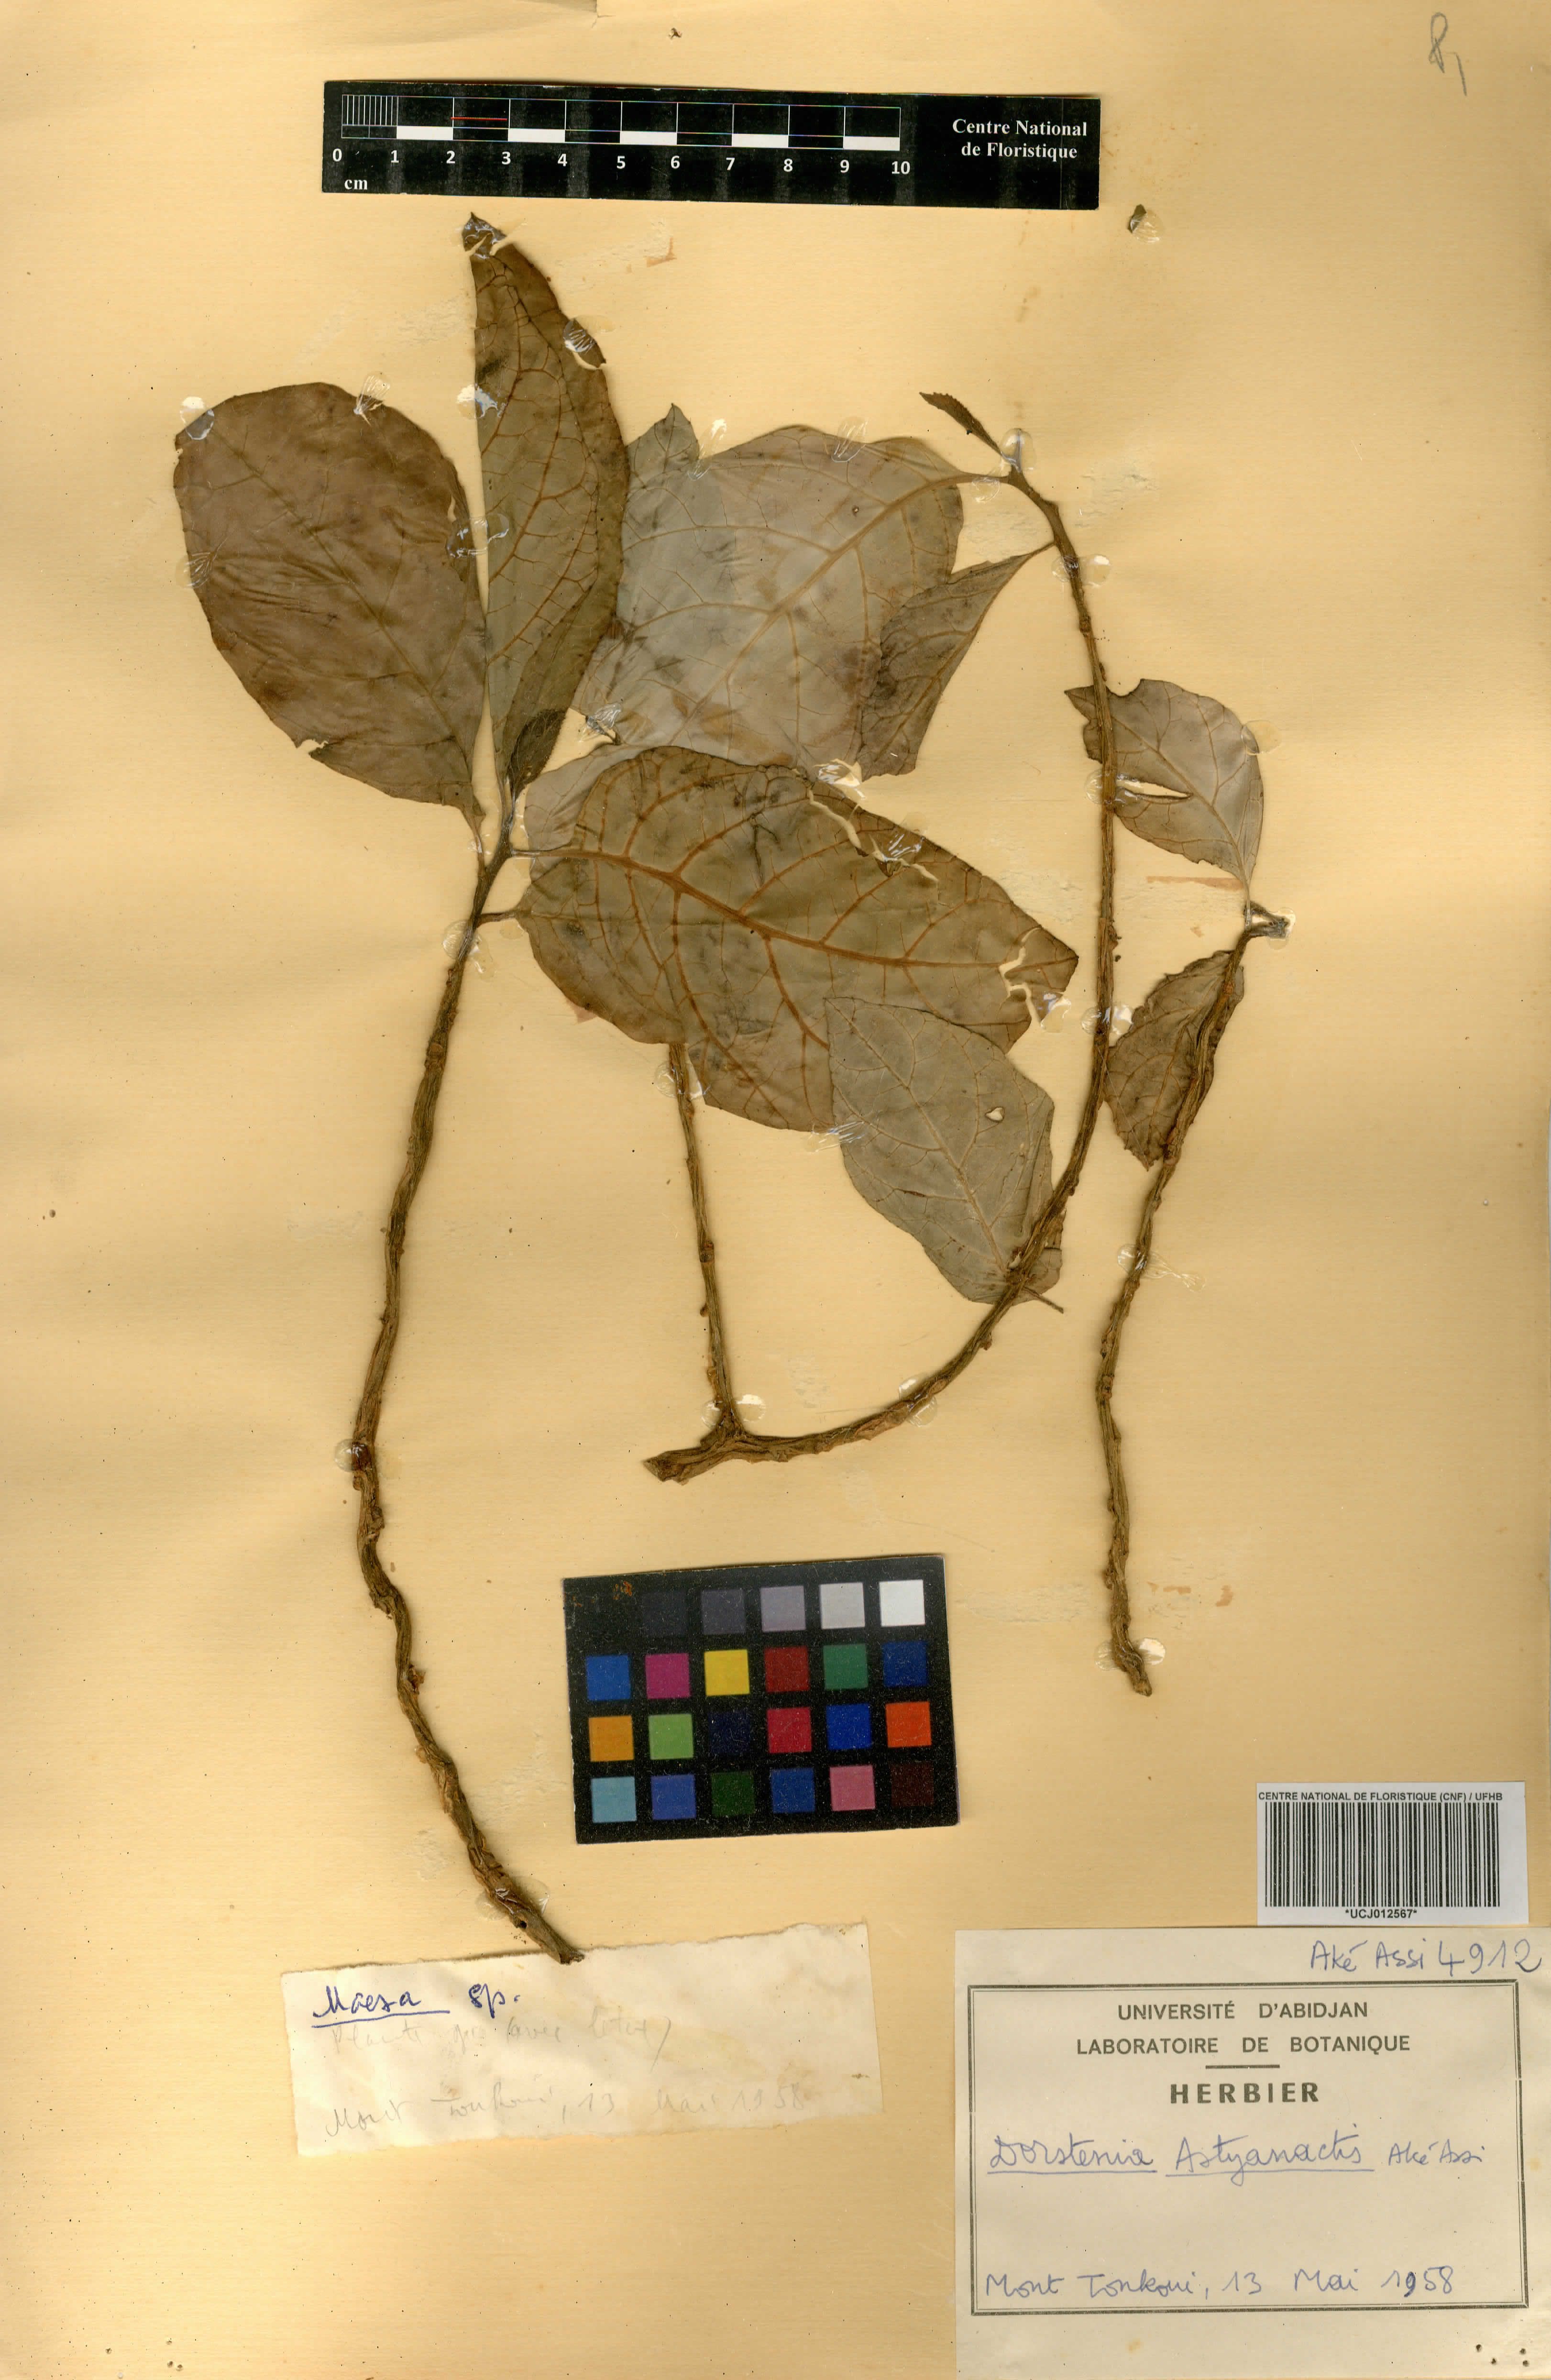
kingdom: Plantae
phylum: Tracheophyta
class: Magnoliopsida
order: Rosales
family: Moraceae
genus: Dorstenia
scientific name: Dorstenia astyanactis
